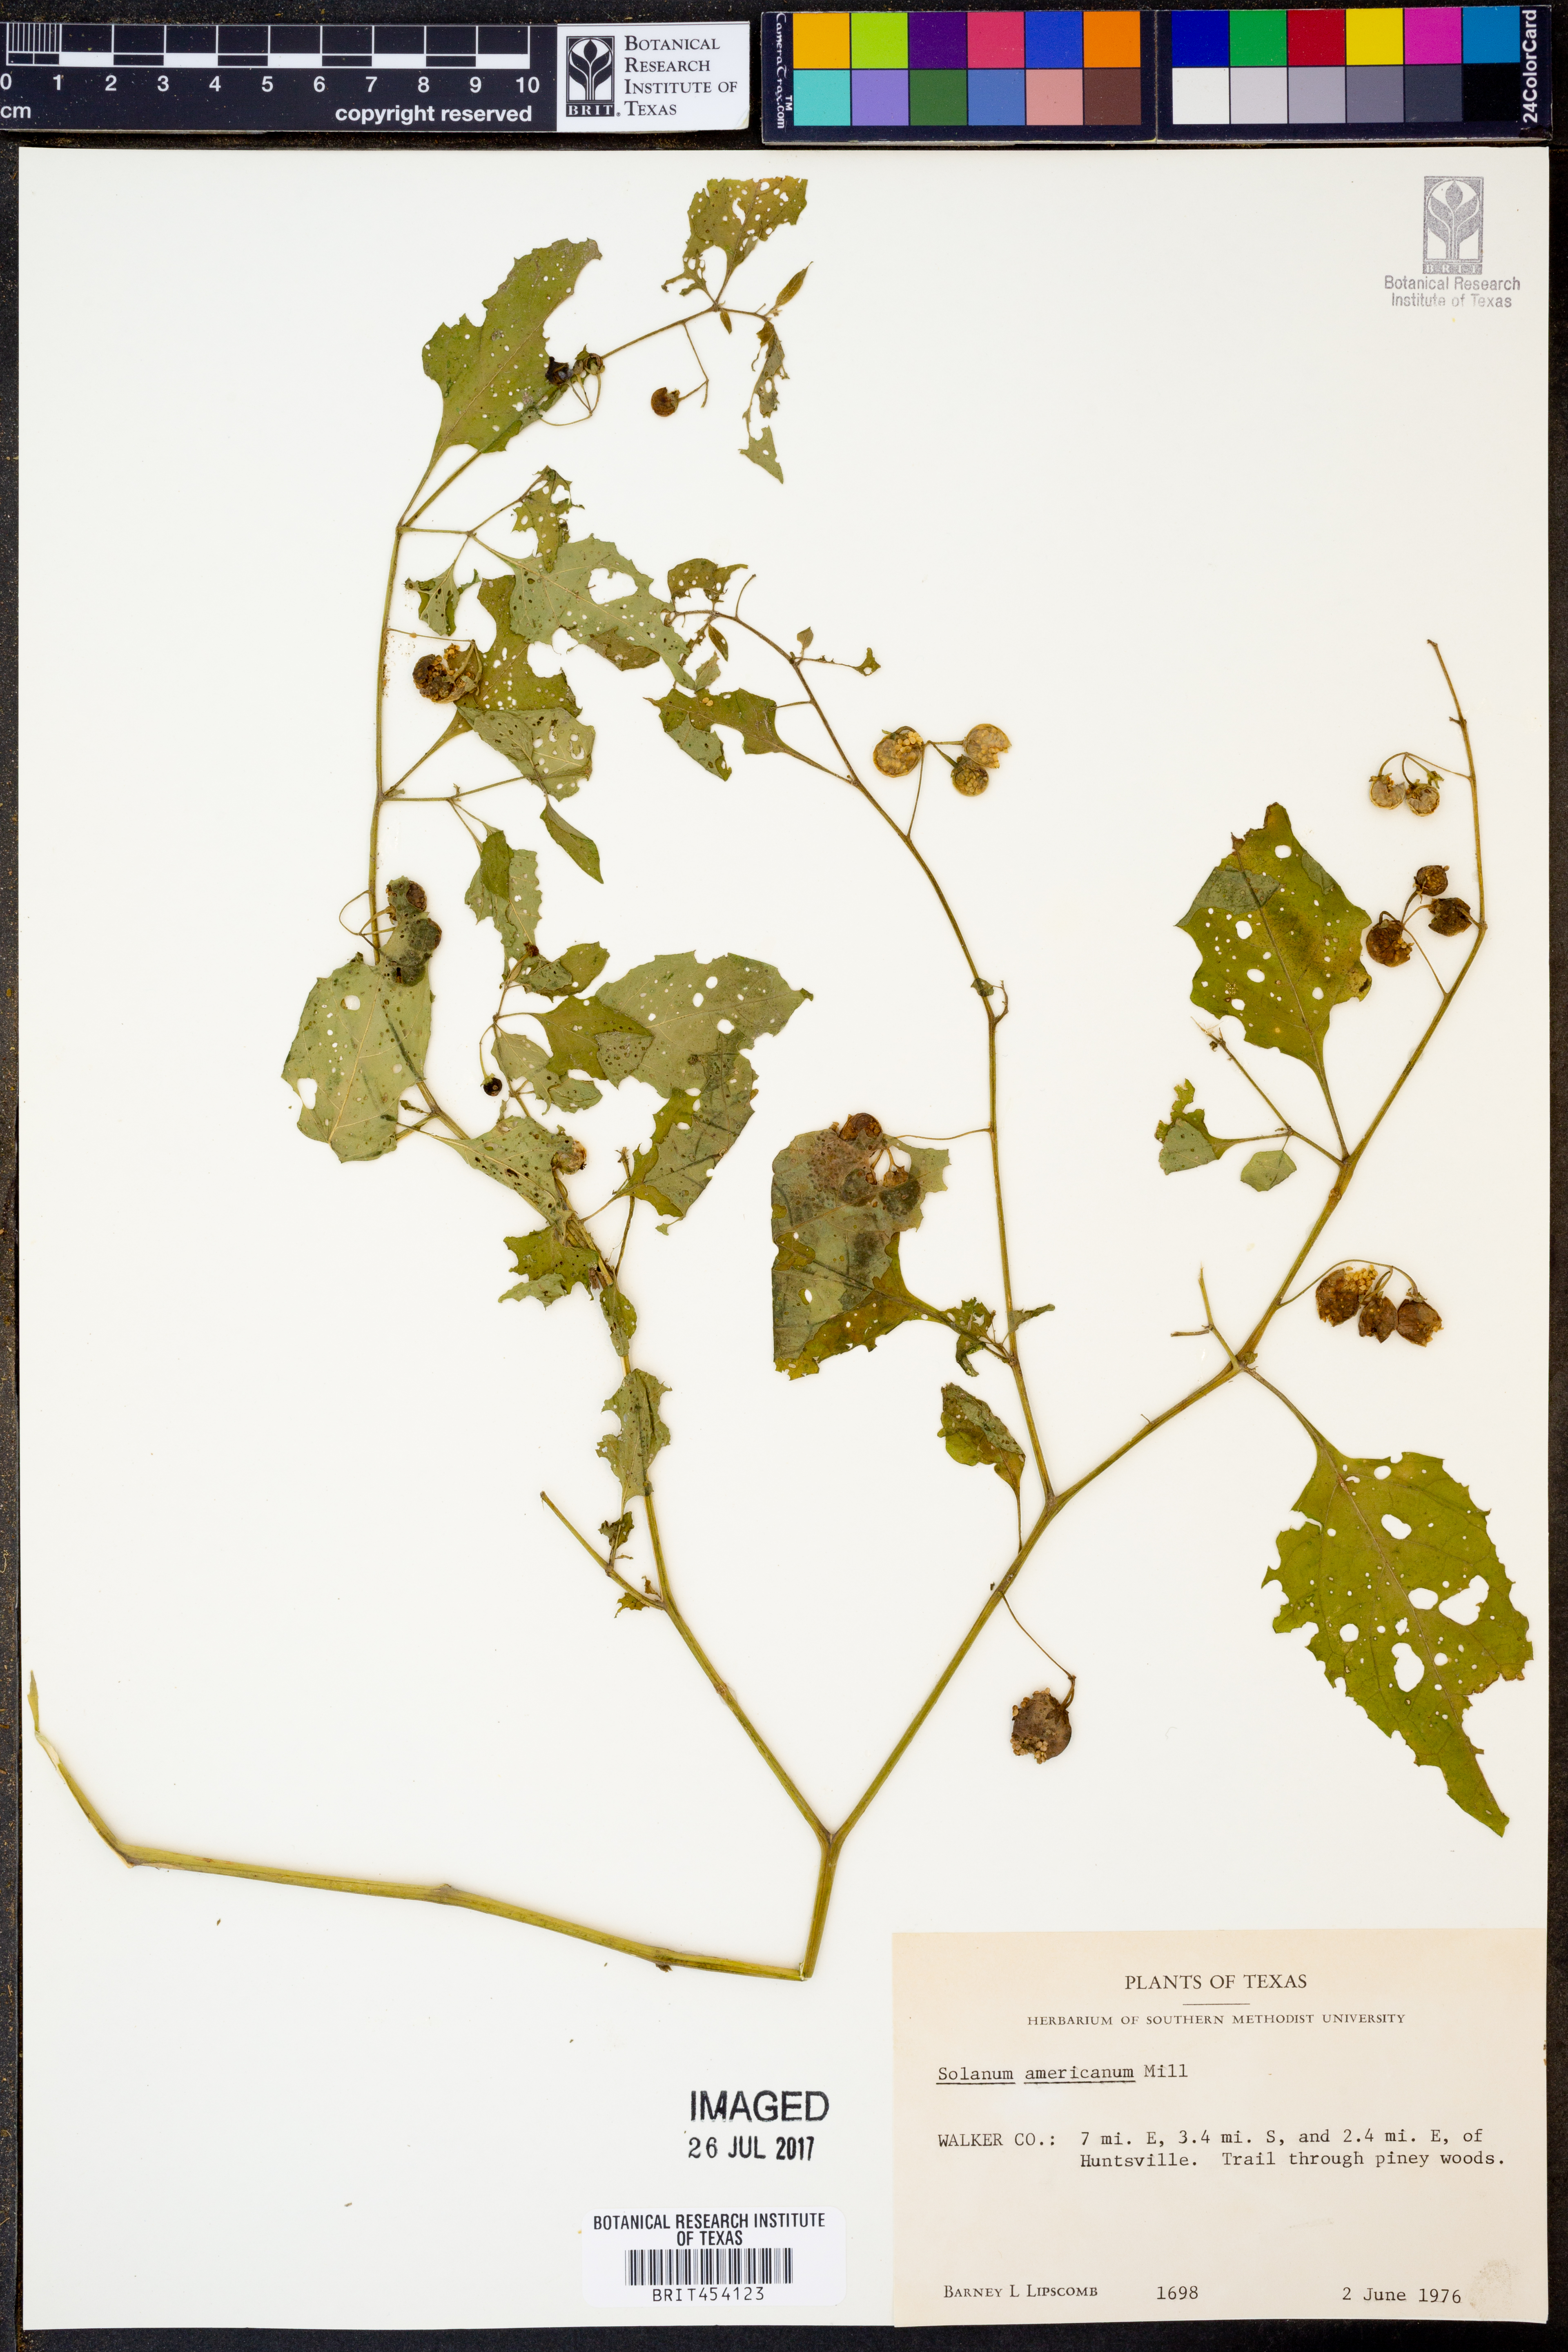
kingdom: Plantae
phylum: Tracheophyta
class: Magnoliopsida
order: Solanales
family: Solanaceae
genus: Solanum
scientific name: Solanum americanum
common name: American black nightshade
